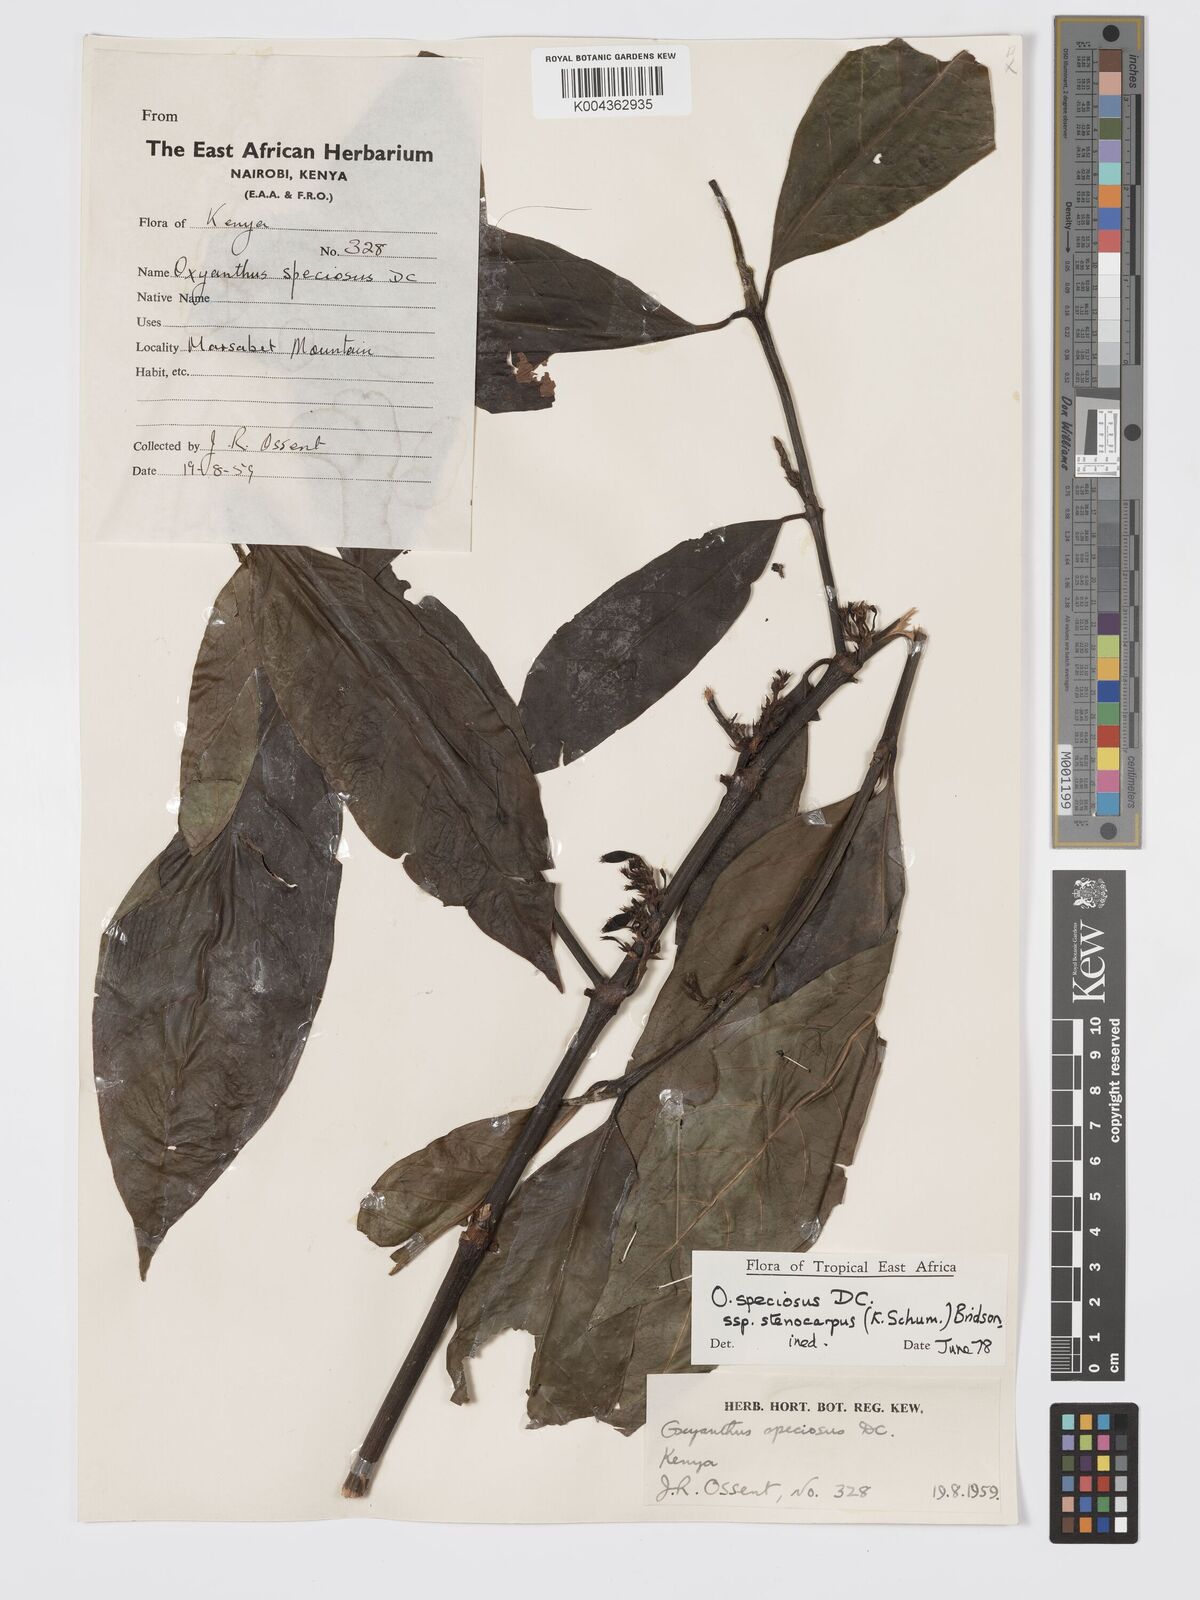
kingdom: Plantae
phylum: Tracheophyta
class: Magnoliopsida
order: Gentianales
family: Rubiaceae
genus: Oxyanthus
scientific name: Oxyanthus speciosus
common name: Whipstick loquat
